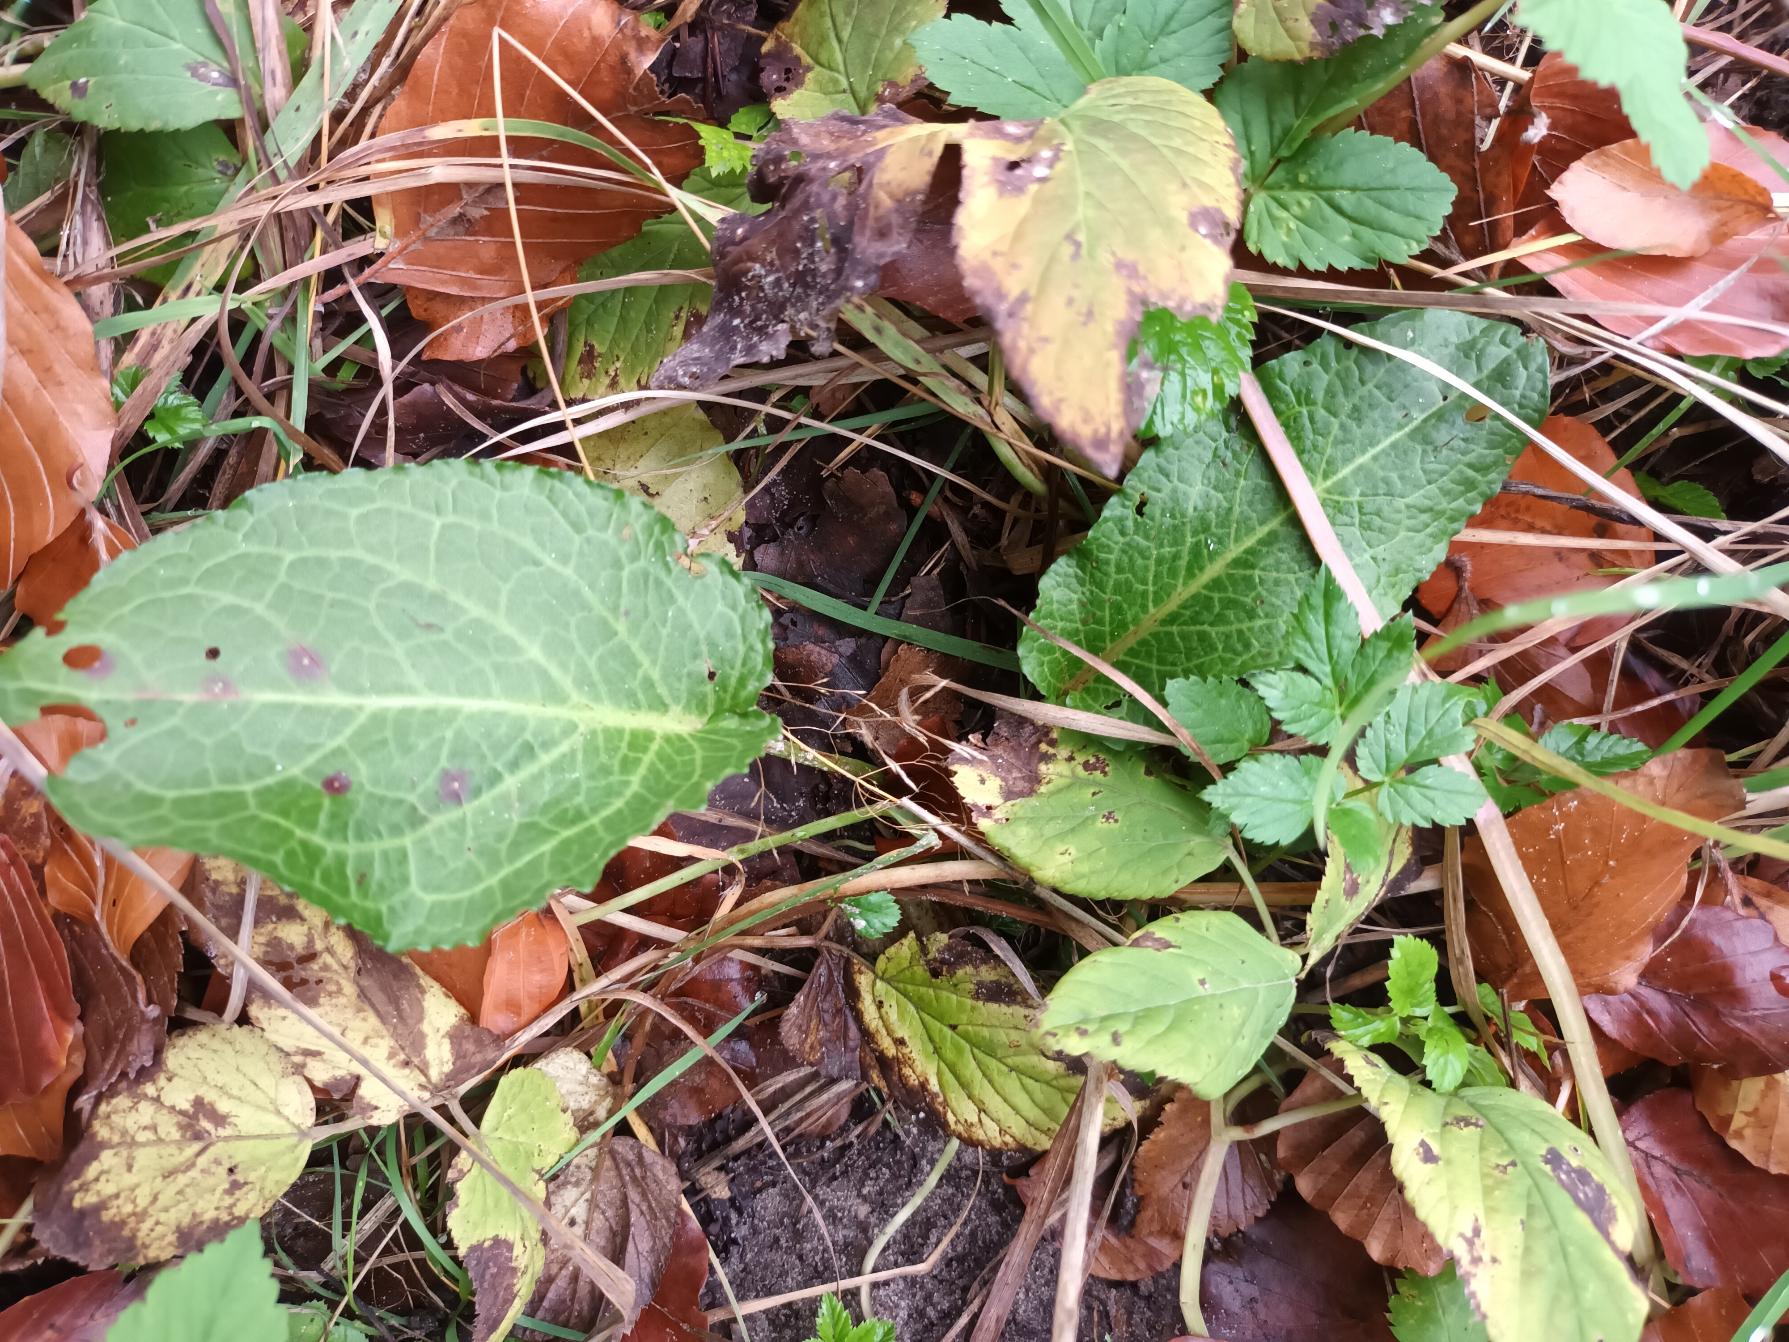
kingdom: Plantae
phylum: Tracheophyta
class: Magnoliopsida
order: Caryophyllales
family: Polygonaceae
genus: Rumex
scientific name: Rumex obtusifolius
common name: Butbladet skræppe
